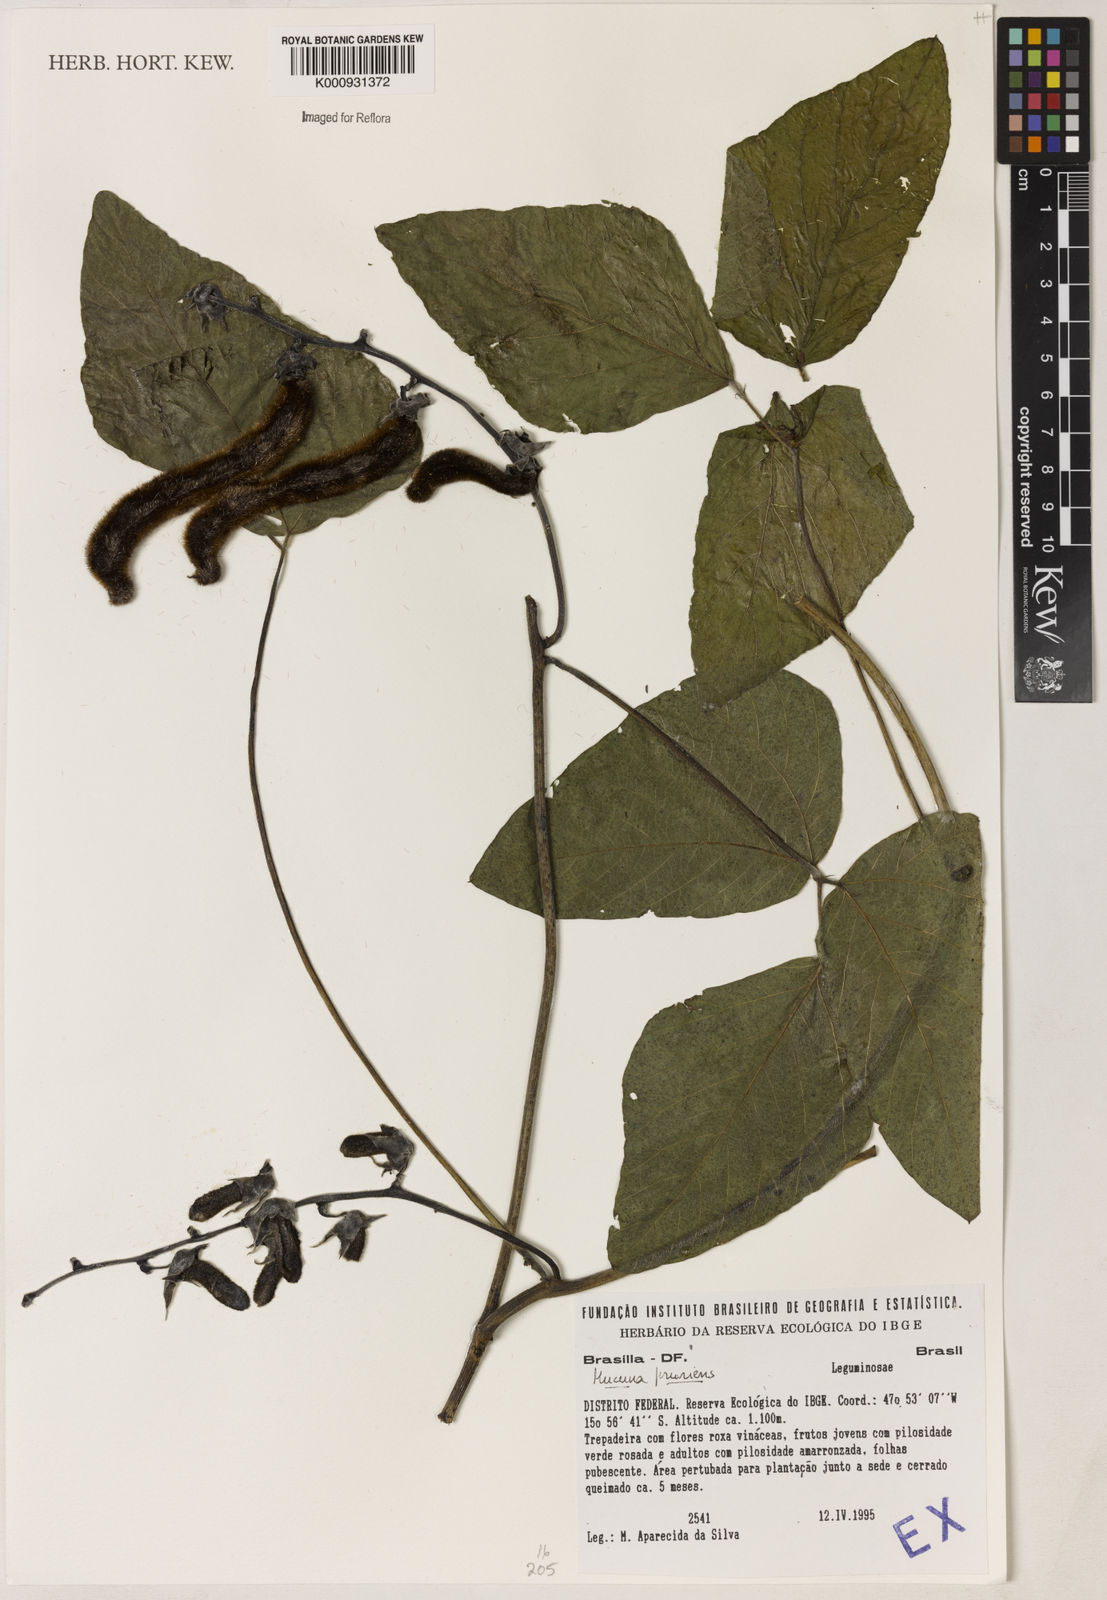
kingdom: Plantae
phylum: Tracheophyta
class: Magnoliopsida
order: Fabales
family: Fabaceae
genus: Mucuna
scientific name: Mucuna pruriens
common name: Cow-itch
